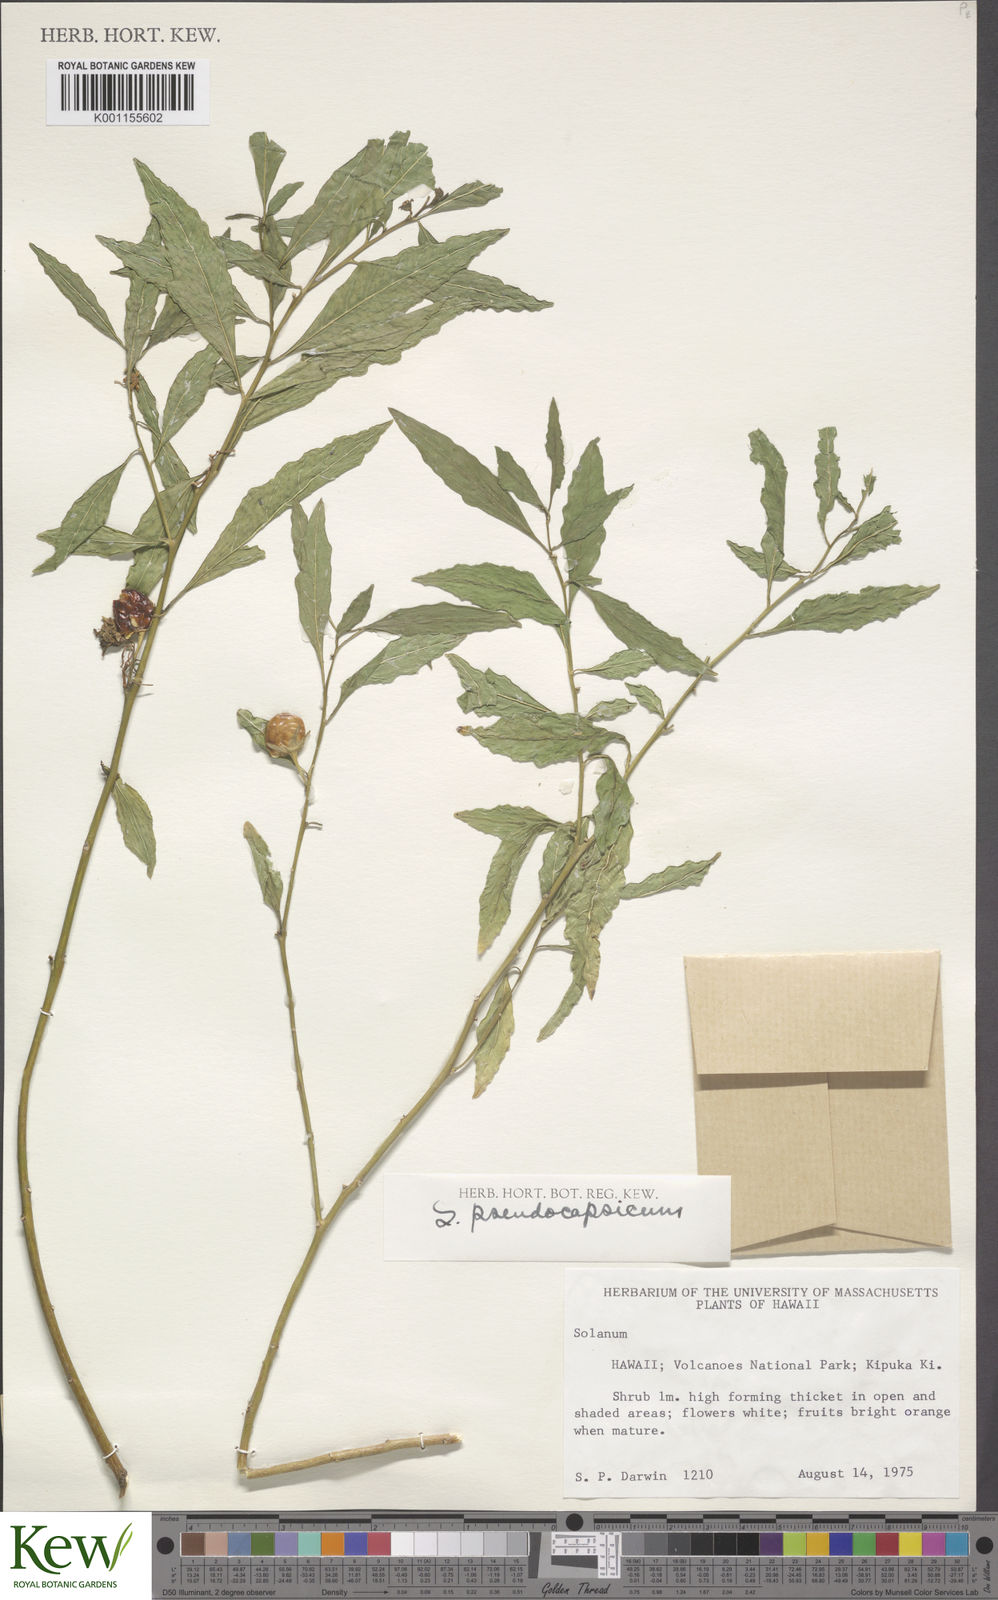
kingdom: Plantae
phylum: Tracheophyta
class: Magnoliopsida
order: Solanales
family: Solanaceae
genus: Solanum
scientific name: Solanum pseudocapsicum
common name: Jerusalem cherry
